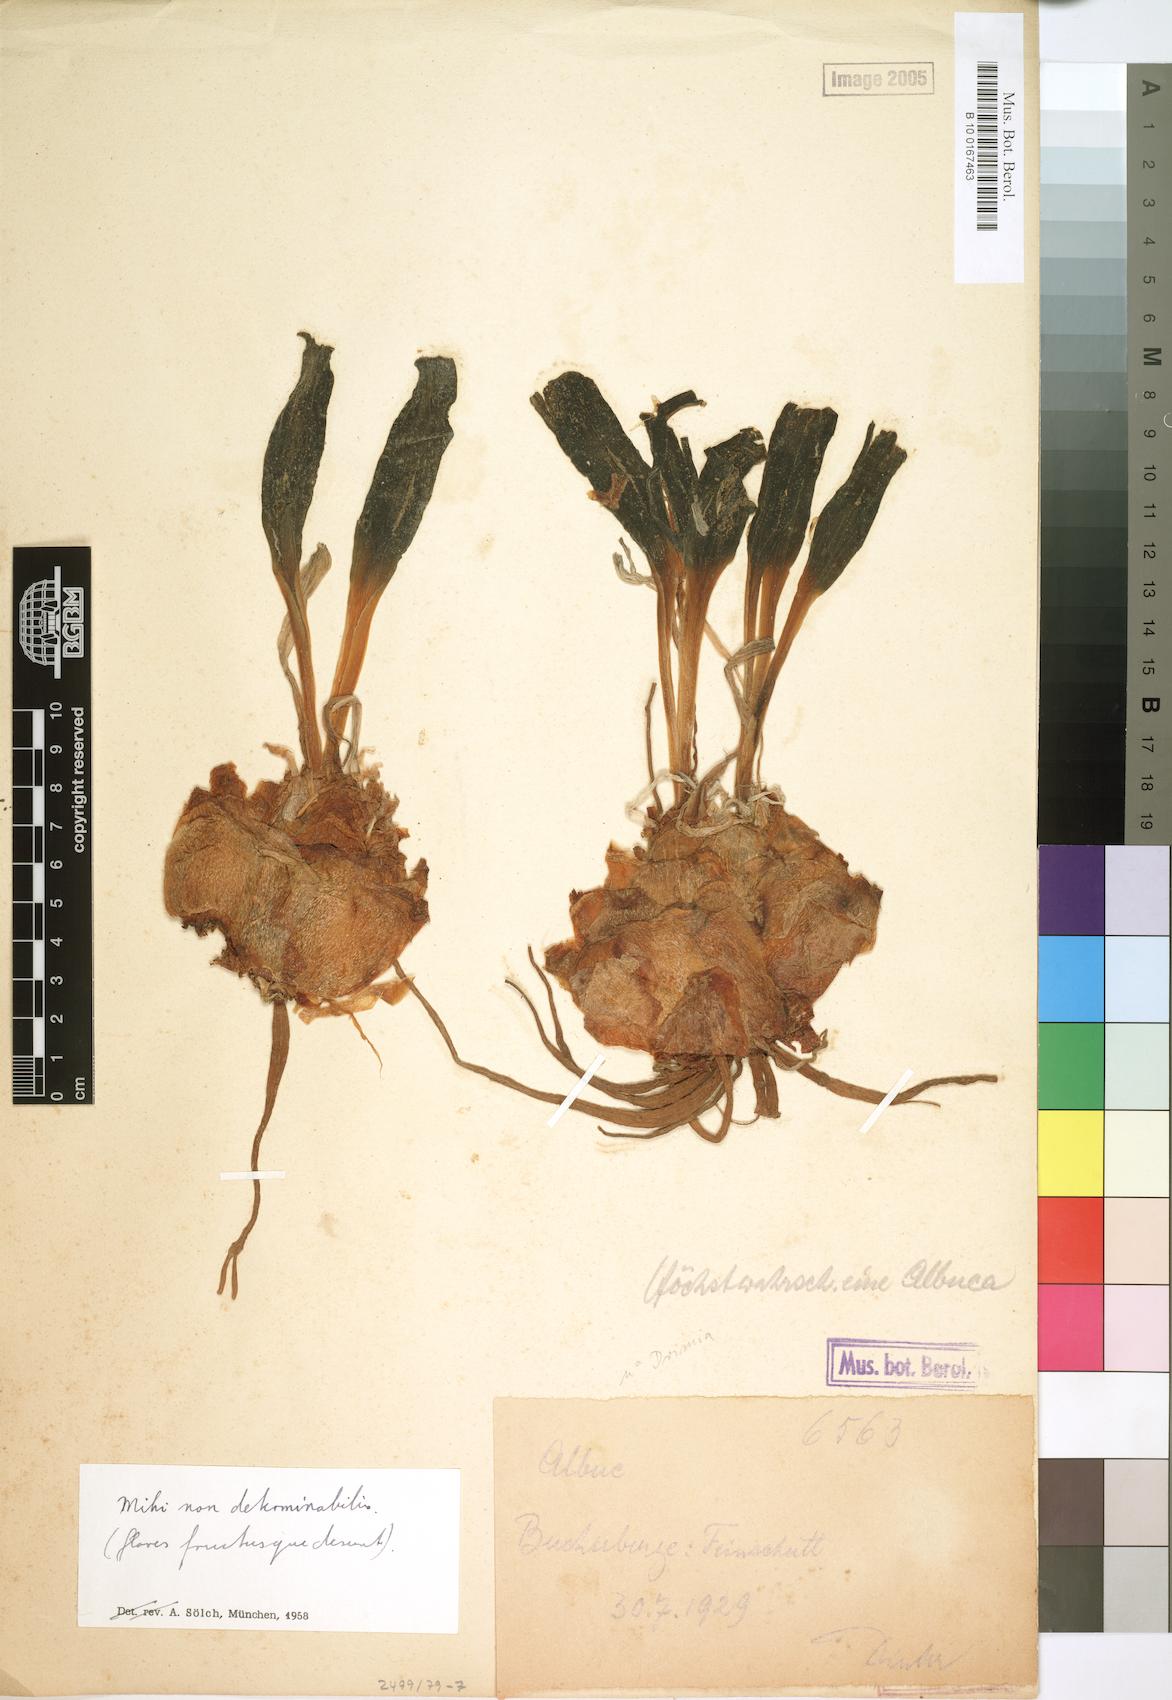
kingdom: Plantae
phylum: Tracheophyta
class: Liliopsida
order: Asparagales
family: Asparagaceae
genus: Albuca
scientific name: Albuca
